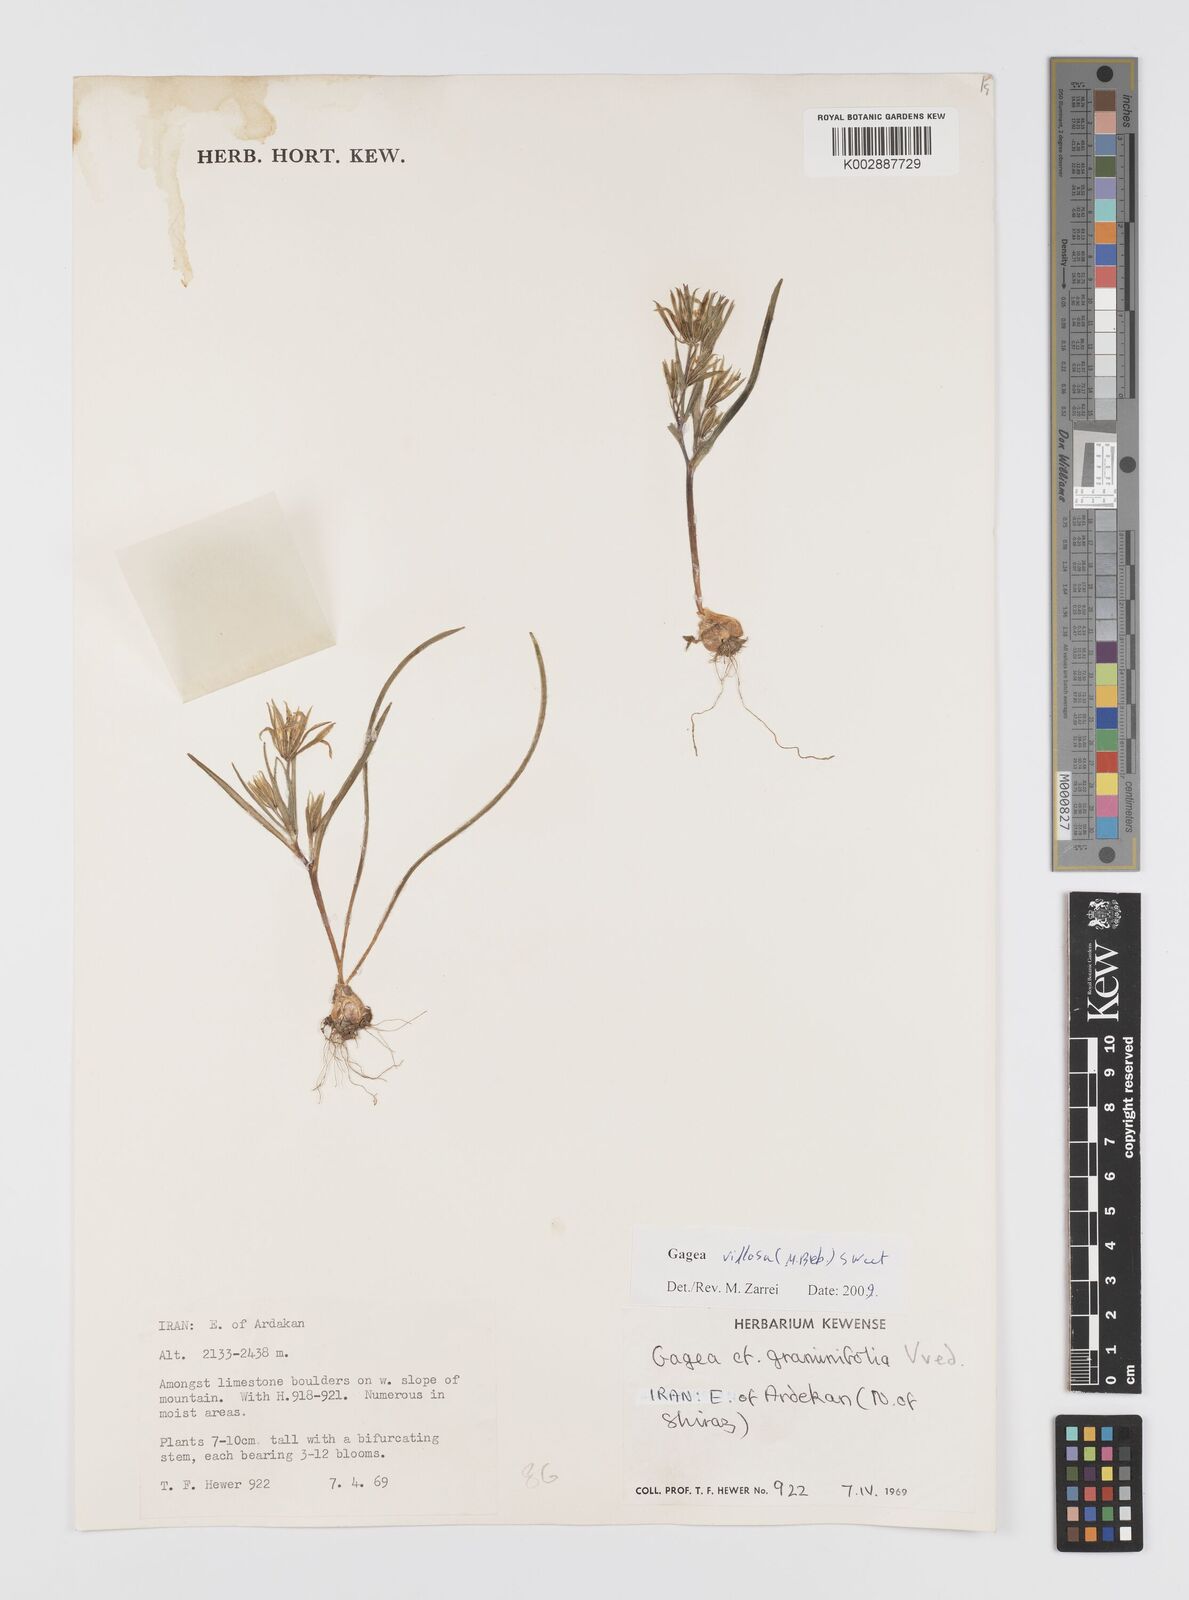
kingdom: Plantae
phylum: Tracheophyta
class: Liliopsida
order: Liliales
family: Liliaceae
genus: Gagea
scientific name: Gagea villosa
